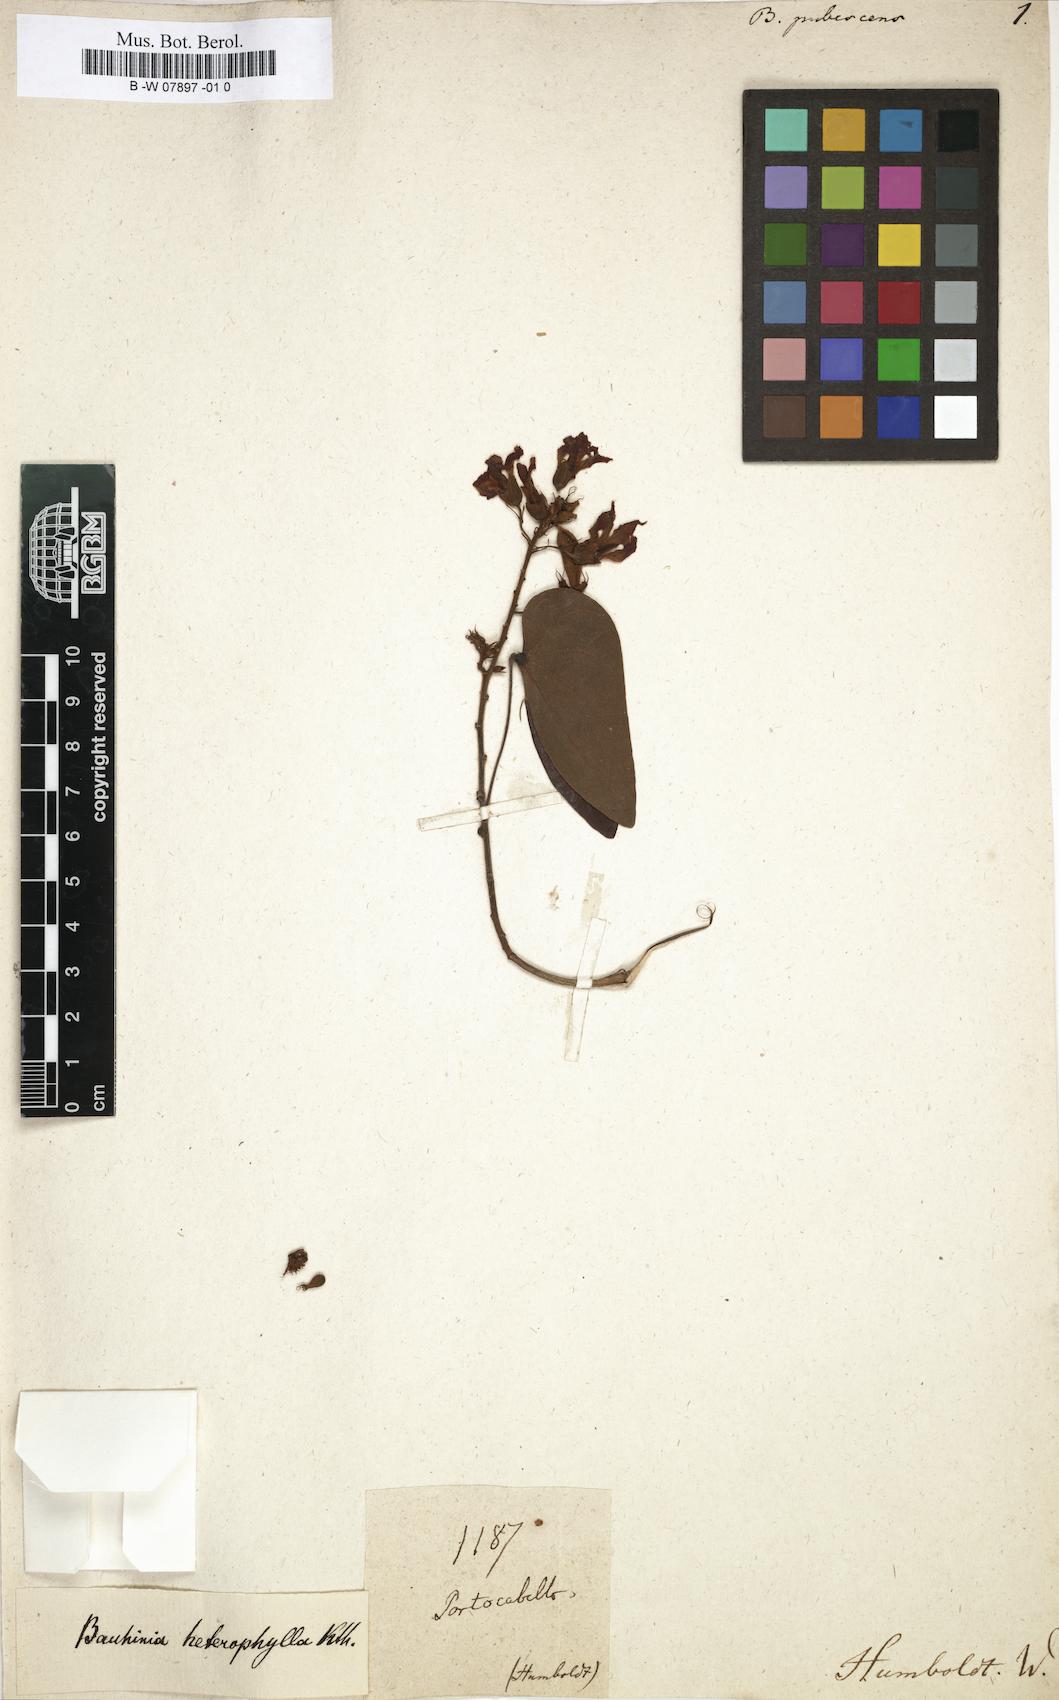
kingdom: Plantae
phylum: Tracheophyta
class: Magnoliopsida
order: Fabales
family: Fabaceae
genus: Bauhinia
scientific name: Bauhinia tomentosa
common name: Bell bauhinia
